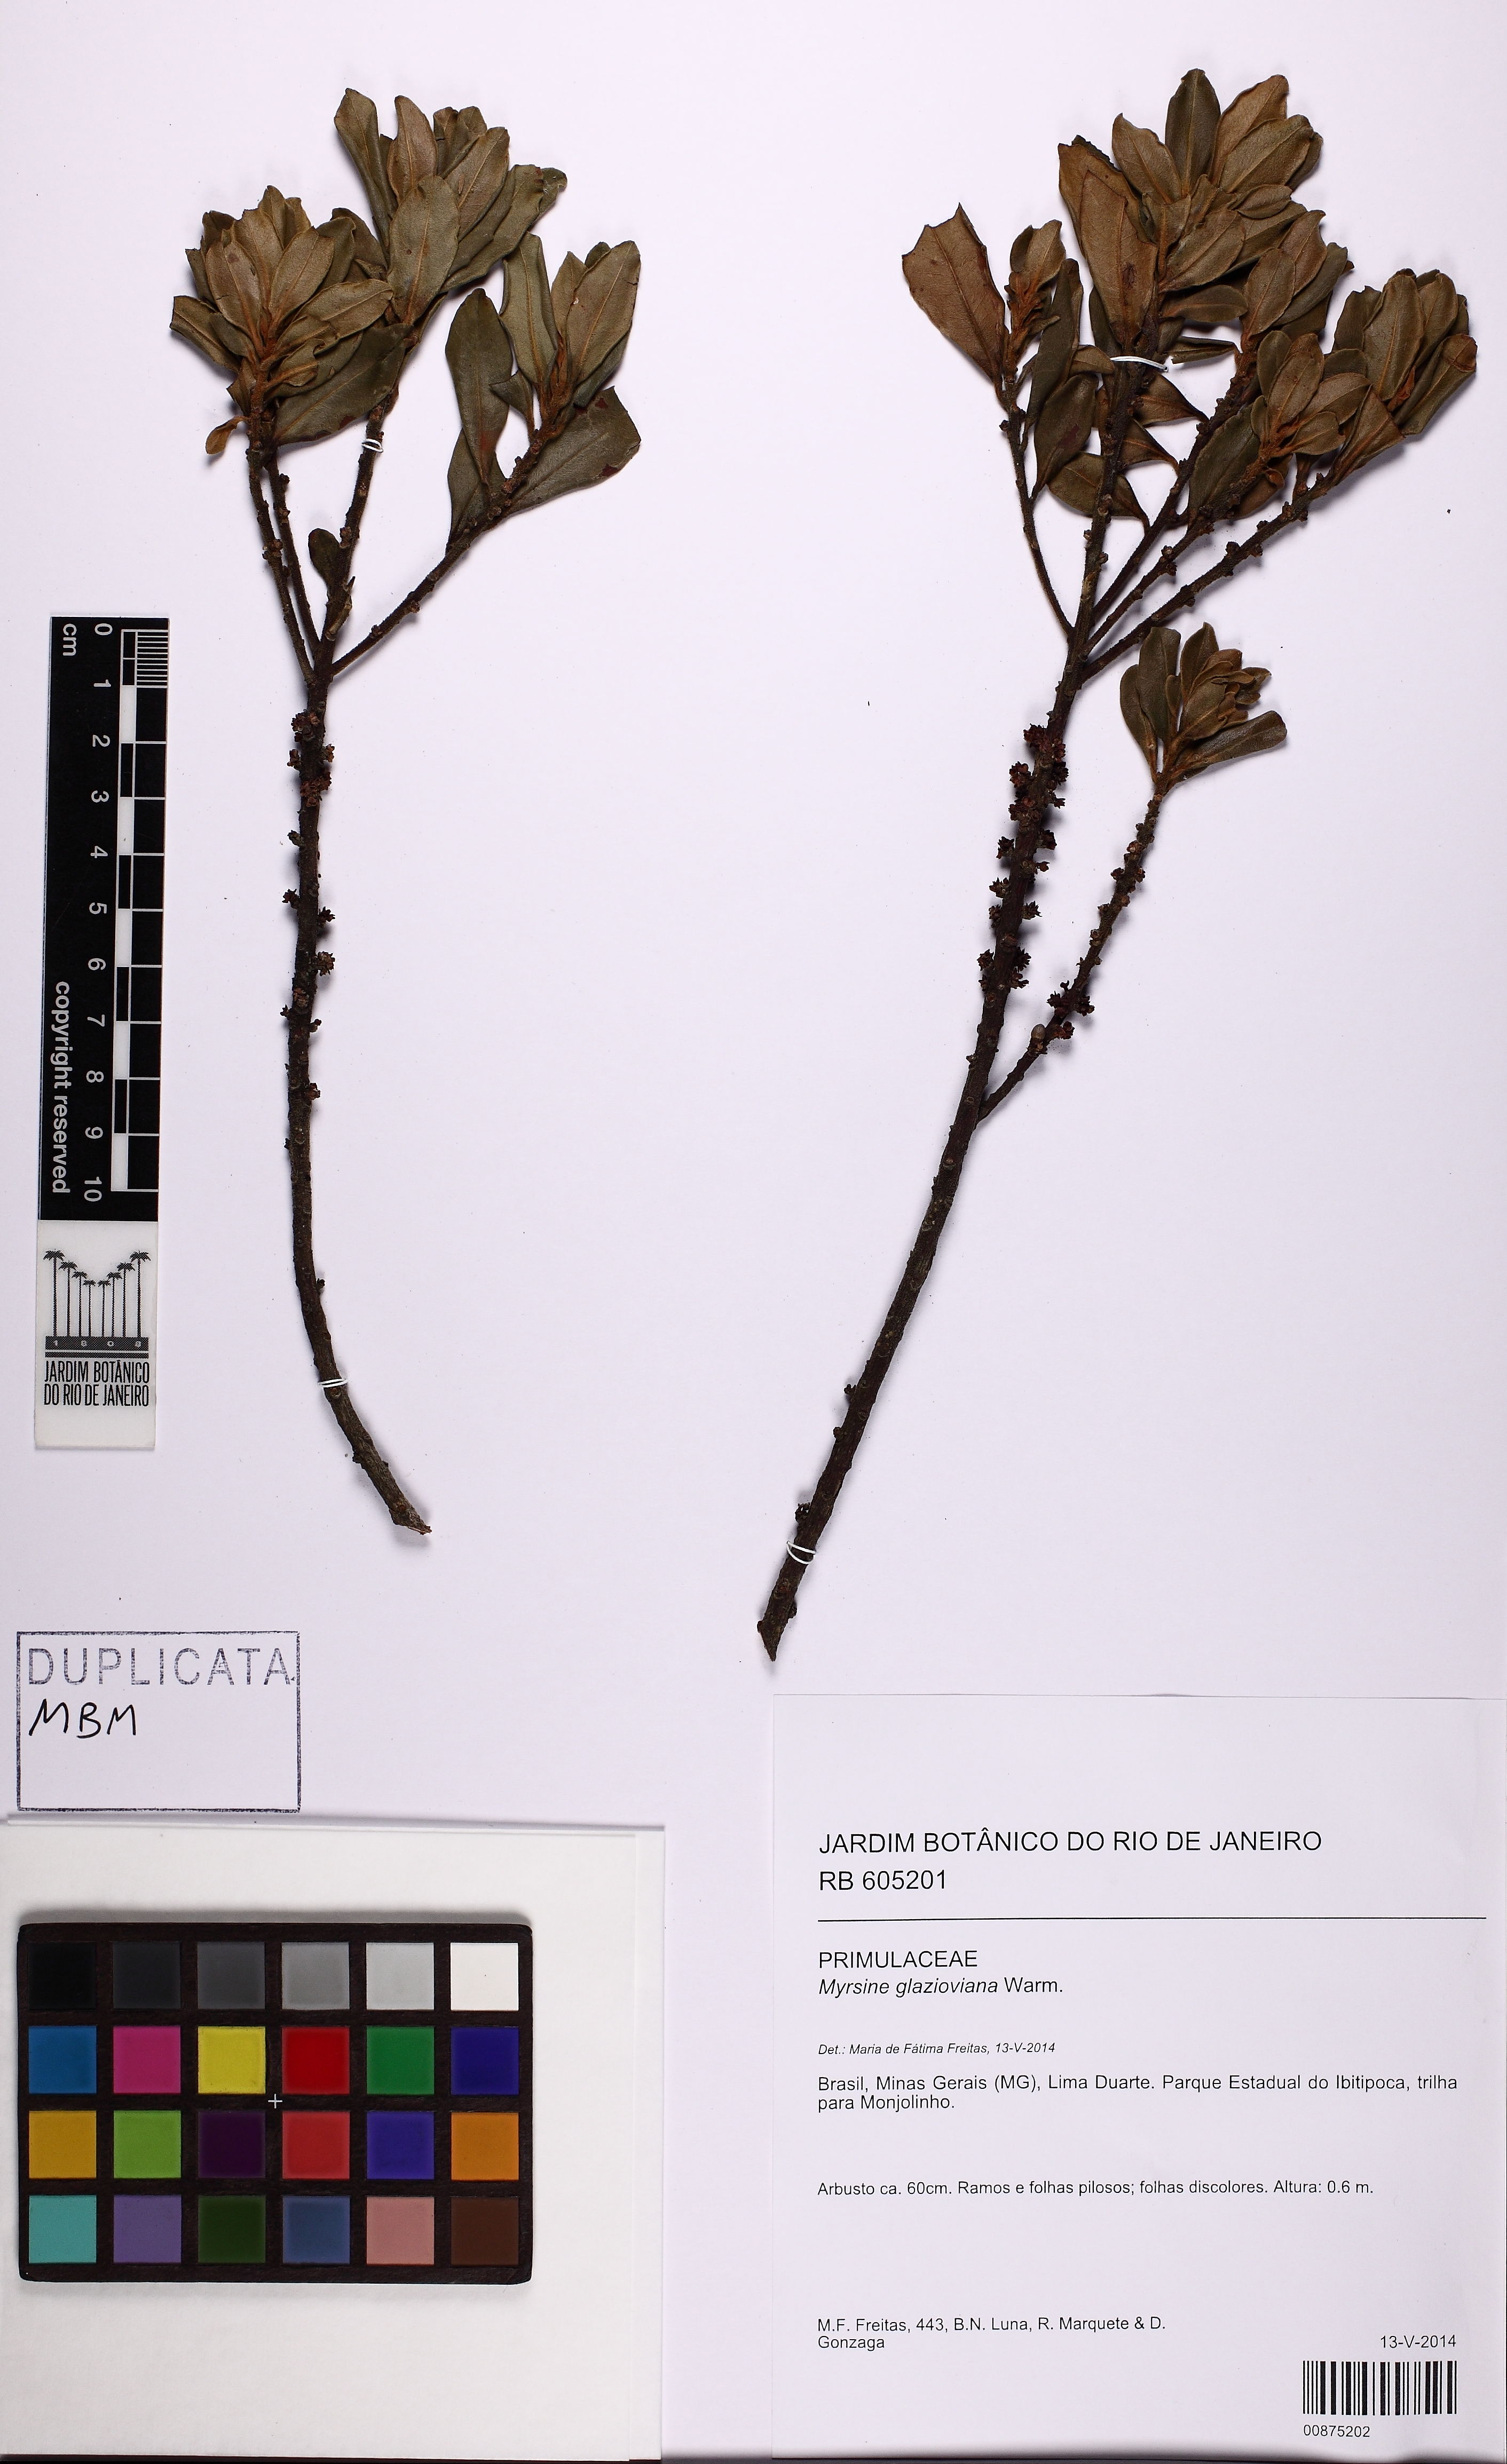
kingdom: Plantae
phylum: Tracheophyta
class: Magnoliopsida
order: Ericales
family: Primulaceae
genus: Myrsine
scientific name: Myrsine glazioviana
